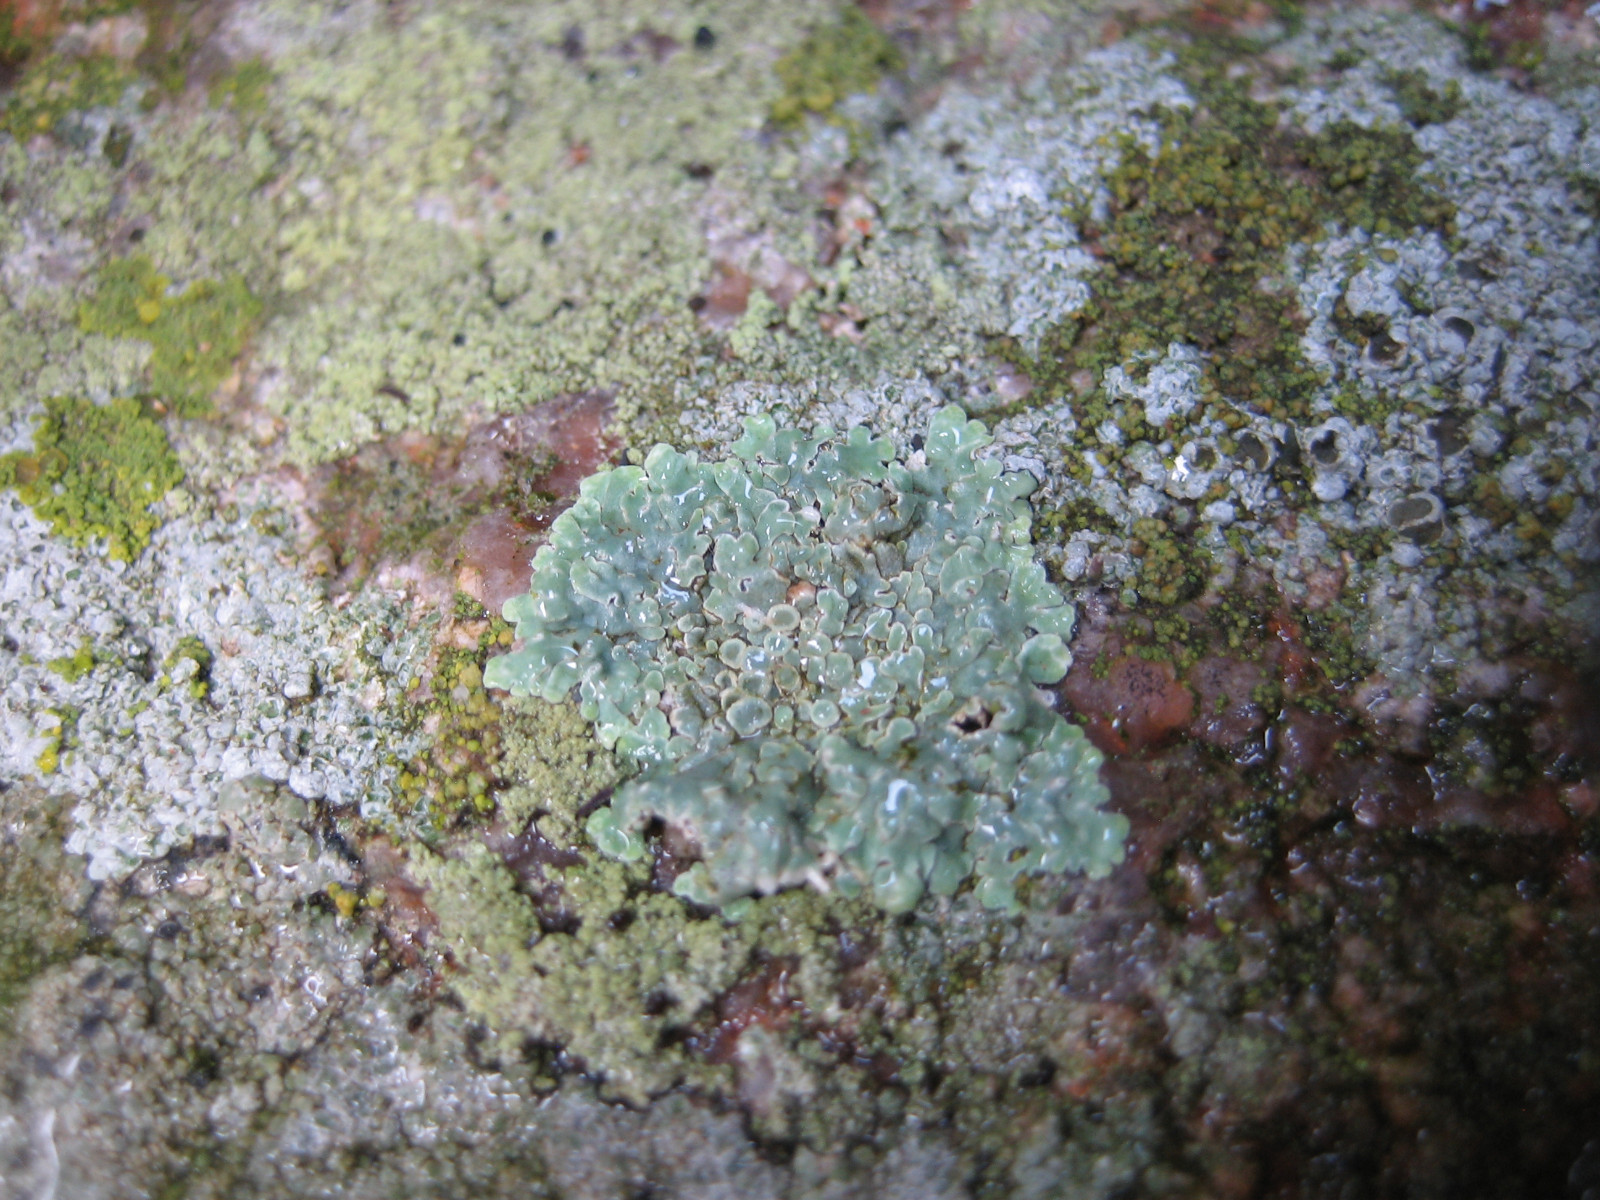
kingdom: Fungi
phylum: Ascomycota
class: Lecanoromycetes
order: Lecanorales
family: Lecanoraceae
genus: Protoparmeliopsis
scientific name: Protoparmeliopsis muralis
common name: randfliget kantskivelav
